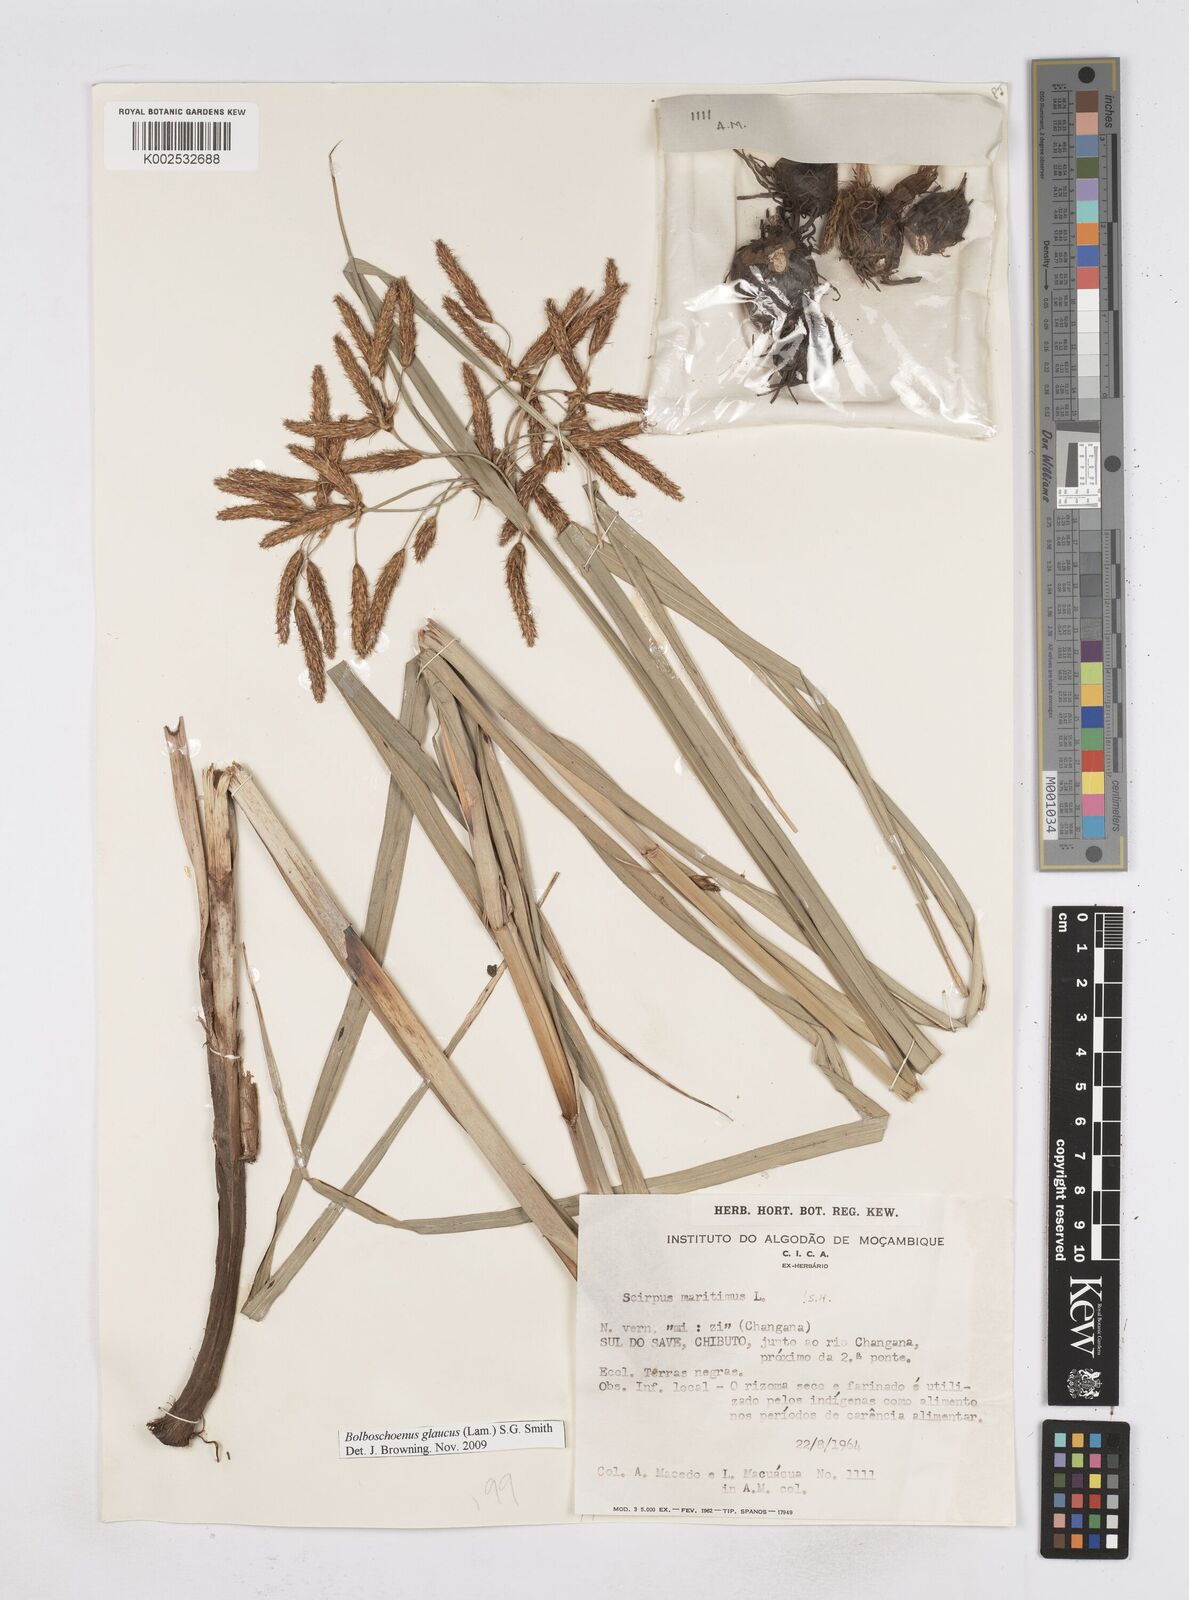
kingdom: Plantae
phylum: Tracheophyta
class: Liliopsida
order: Poales
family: Cyperaceae
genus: Bolboschoenus
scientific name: Bolboschoenus glaucus
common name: Tuberous bulrush
